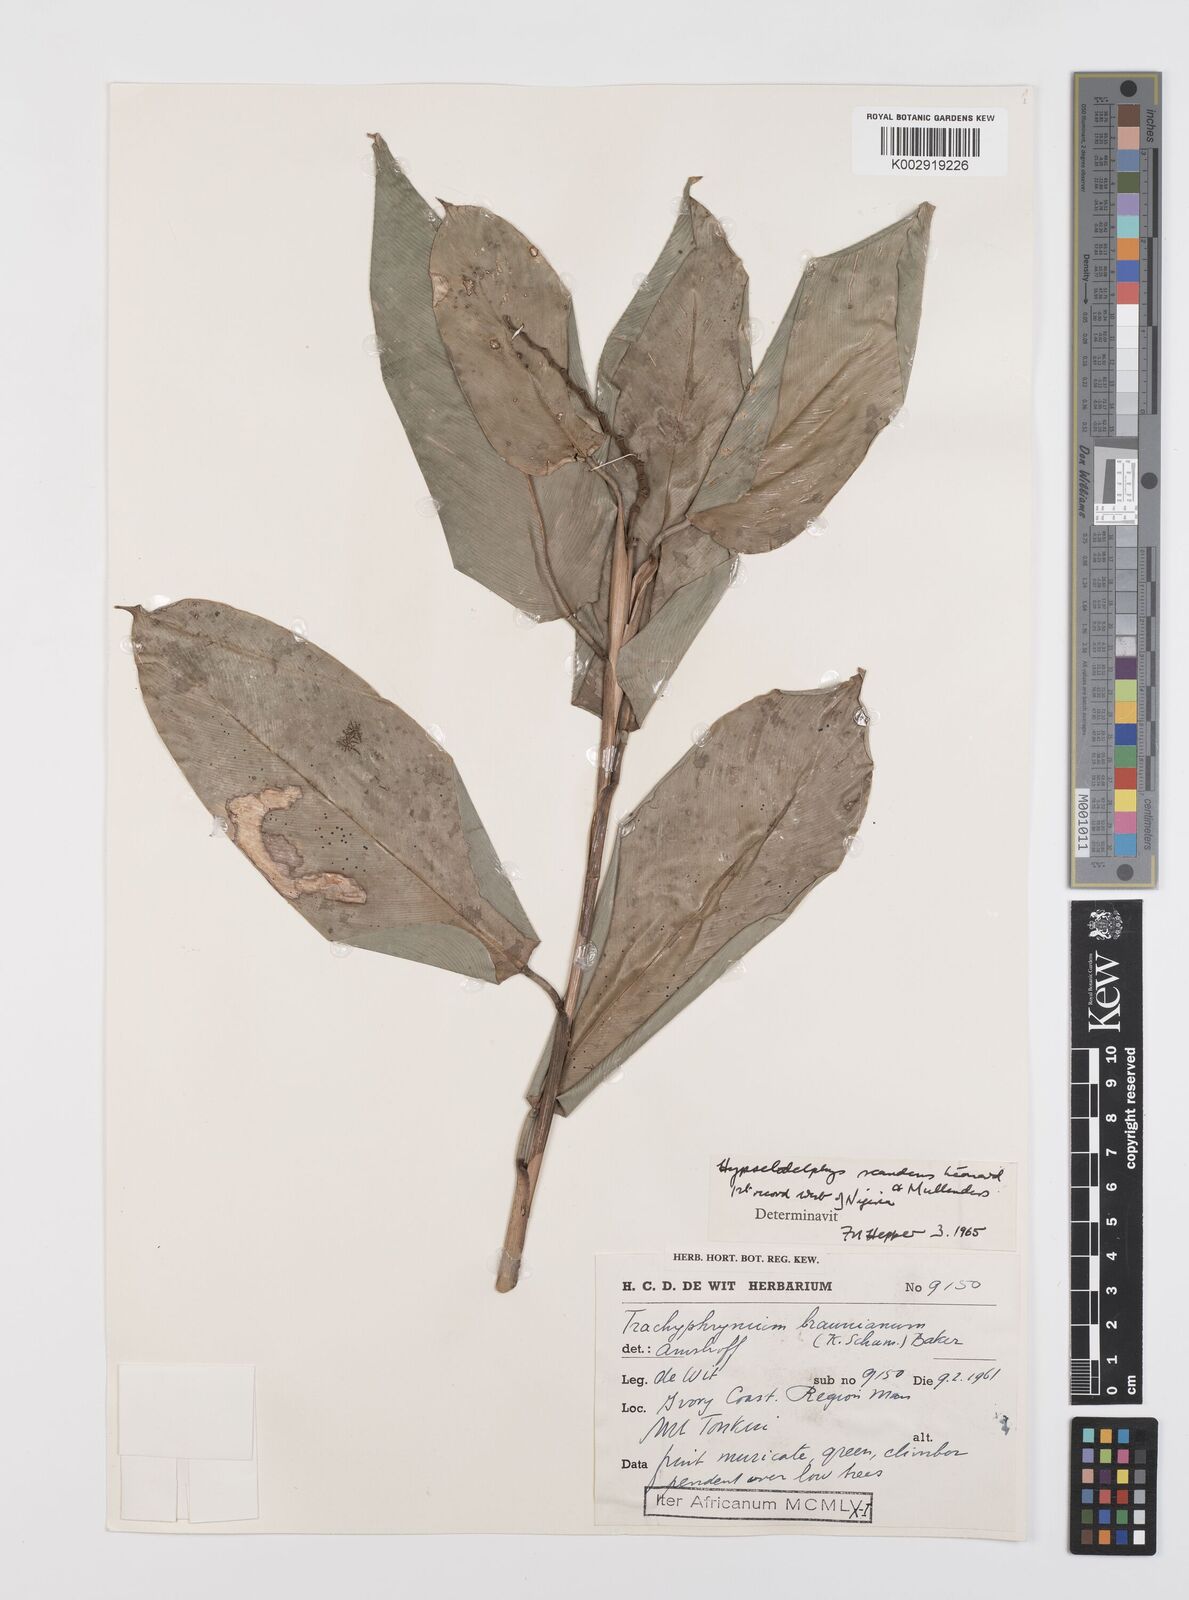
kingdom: Plantae
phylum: Tracheophyta
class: Liliopsida
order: Zingiberales
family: Marantaceae
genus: Hypselodelphys
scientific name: Hypselodelphys scandens
